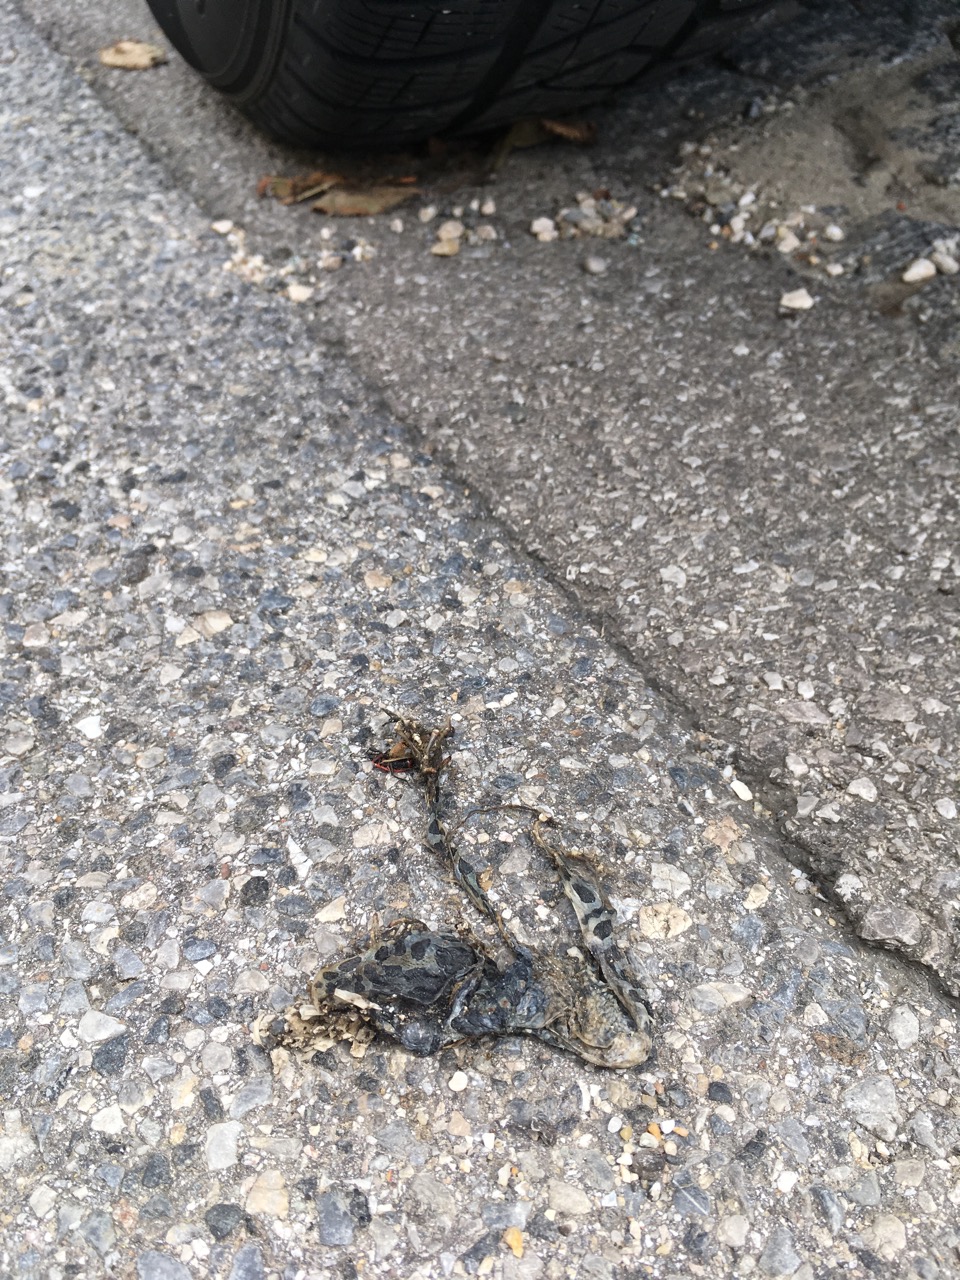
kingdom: Animalia
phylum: Chordata
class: Amphibia
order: Anura
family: Bufonidae
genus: Bufotes
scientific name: Bufotes viridis
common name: European green toad
